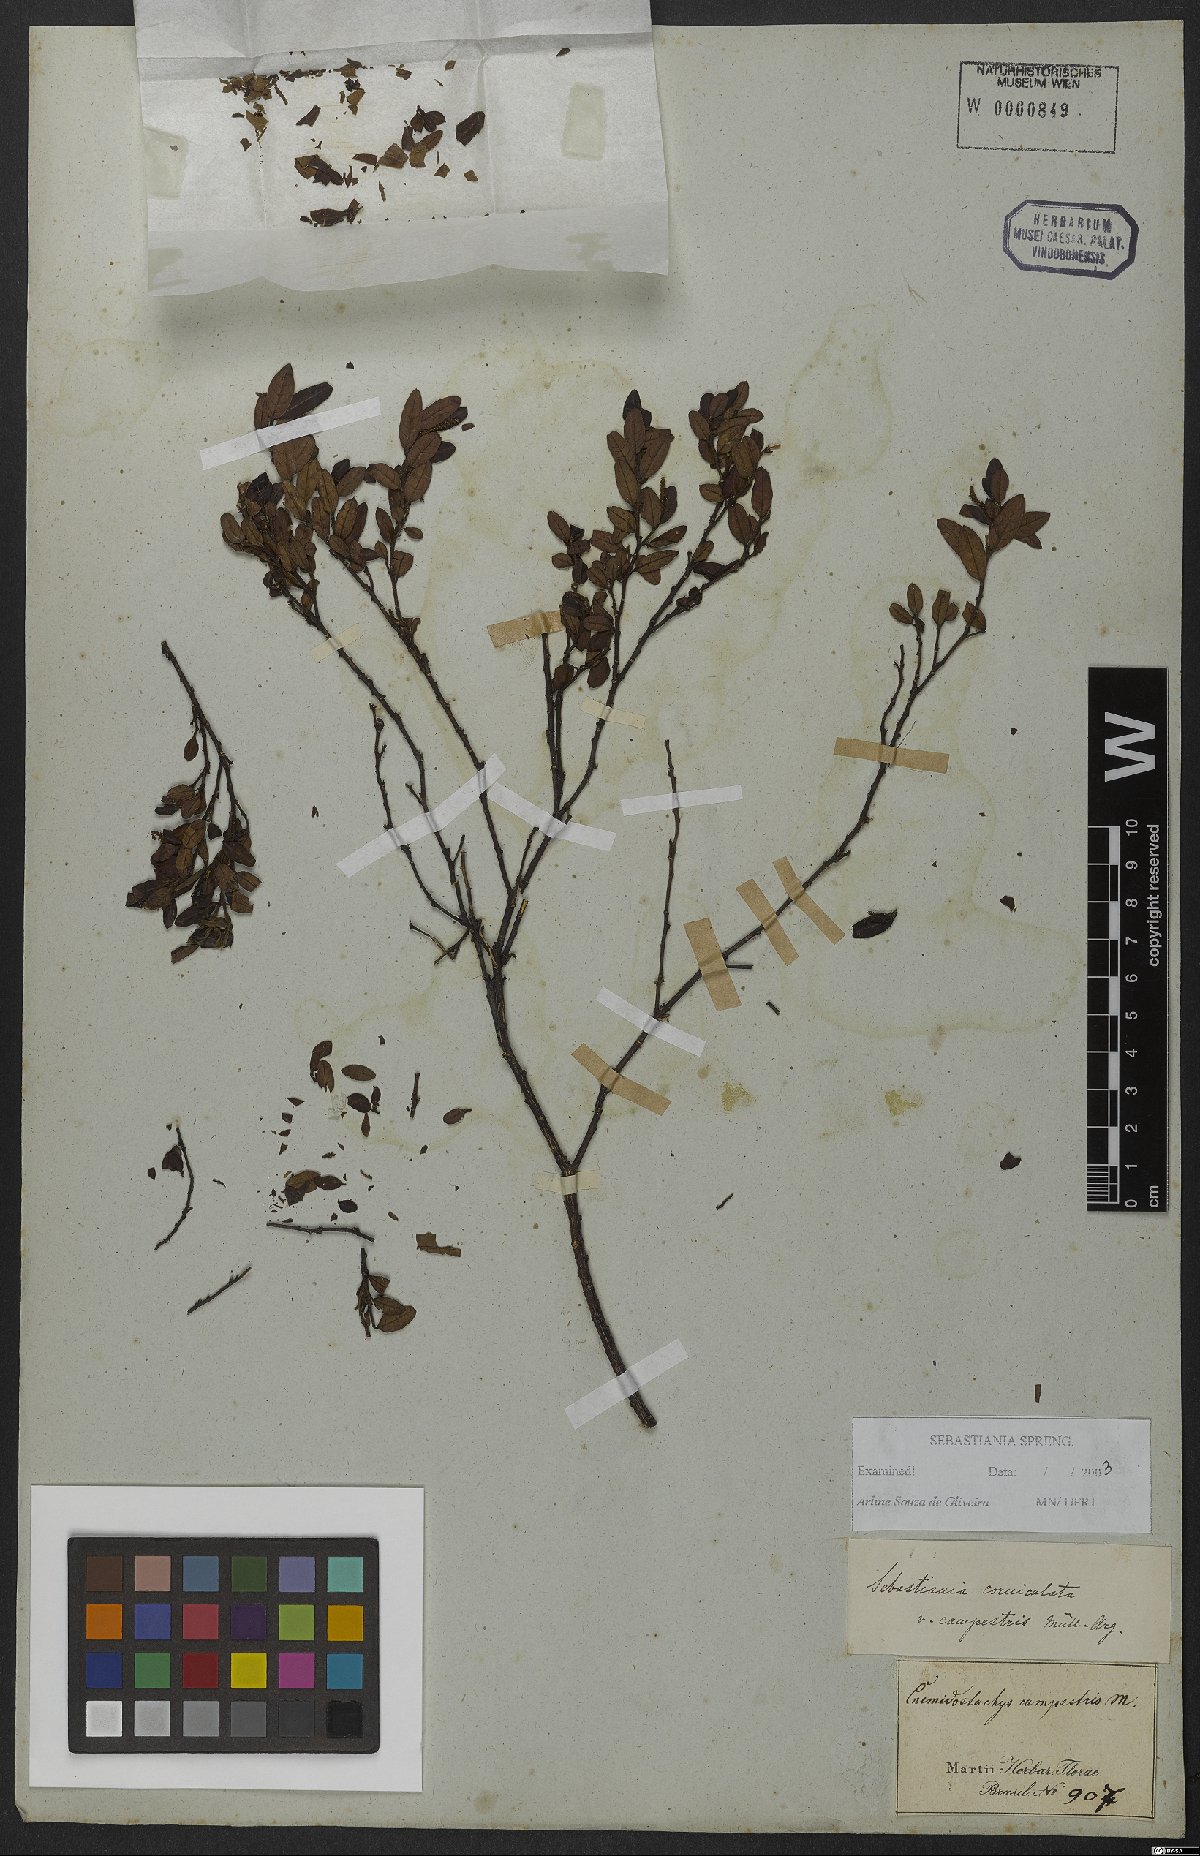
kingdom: Plantae
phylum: Tracheophyta
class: Magnoliopsida
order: Malpighiales
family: Euphorbiaceae
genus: Microstachys
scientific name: Microstachys corniculata
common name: Hato tejas
